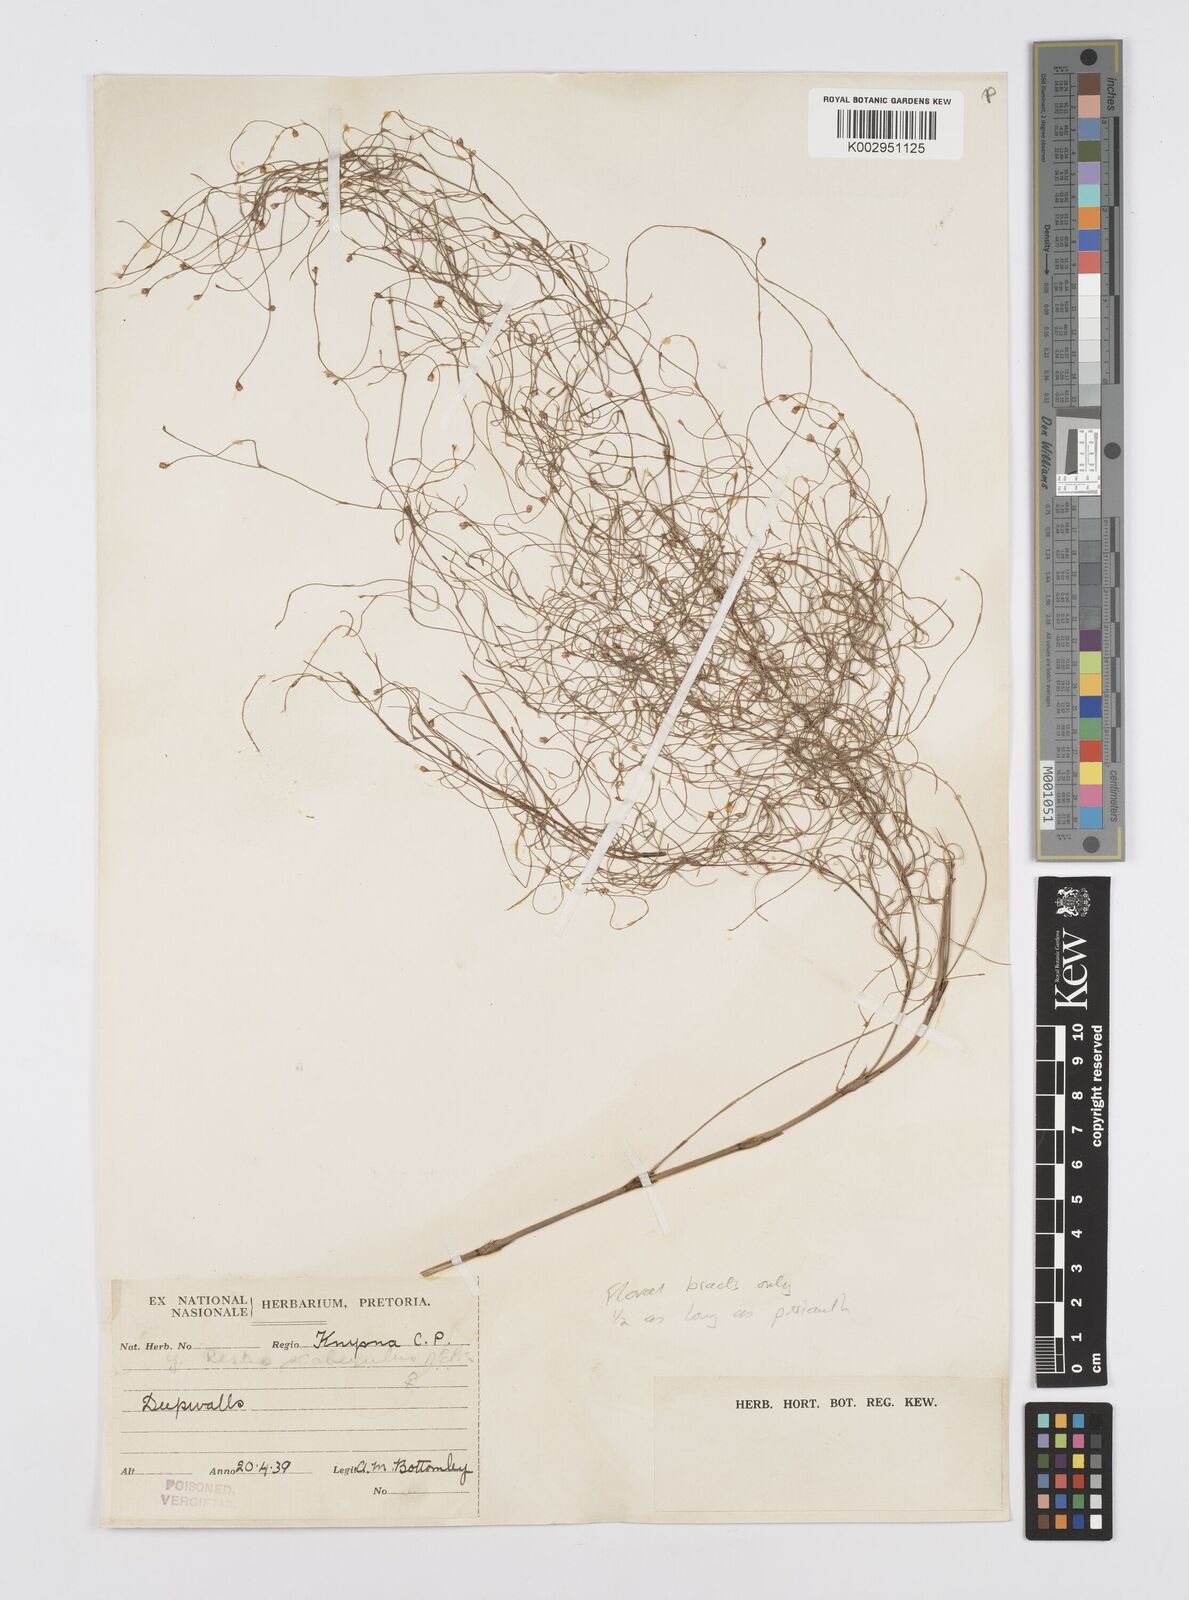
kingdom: Plantae
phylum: Tracheophyta
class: Liliopsida
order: Poales
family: Restionaceae
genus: Restio
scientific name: Restio fourcadei
